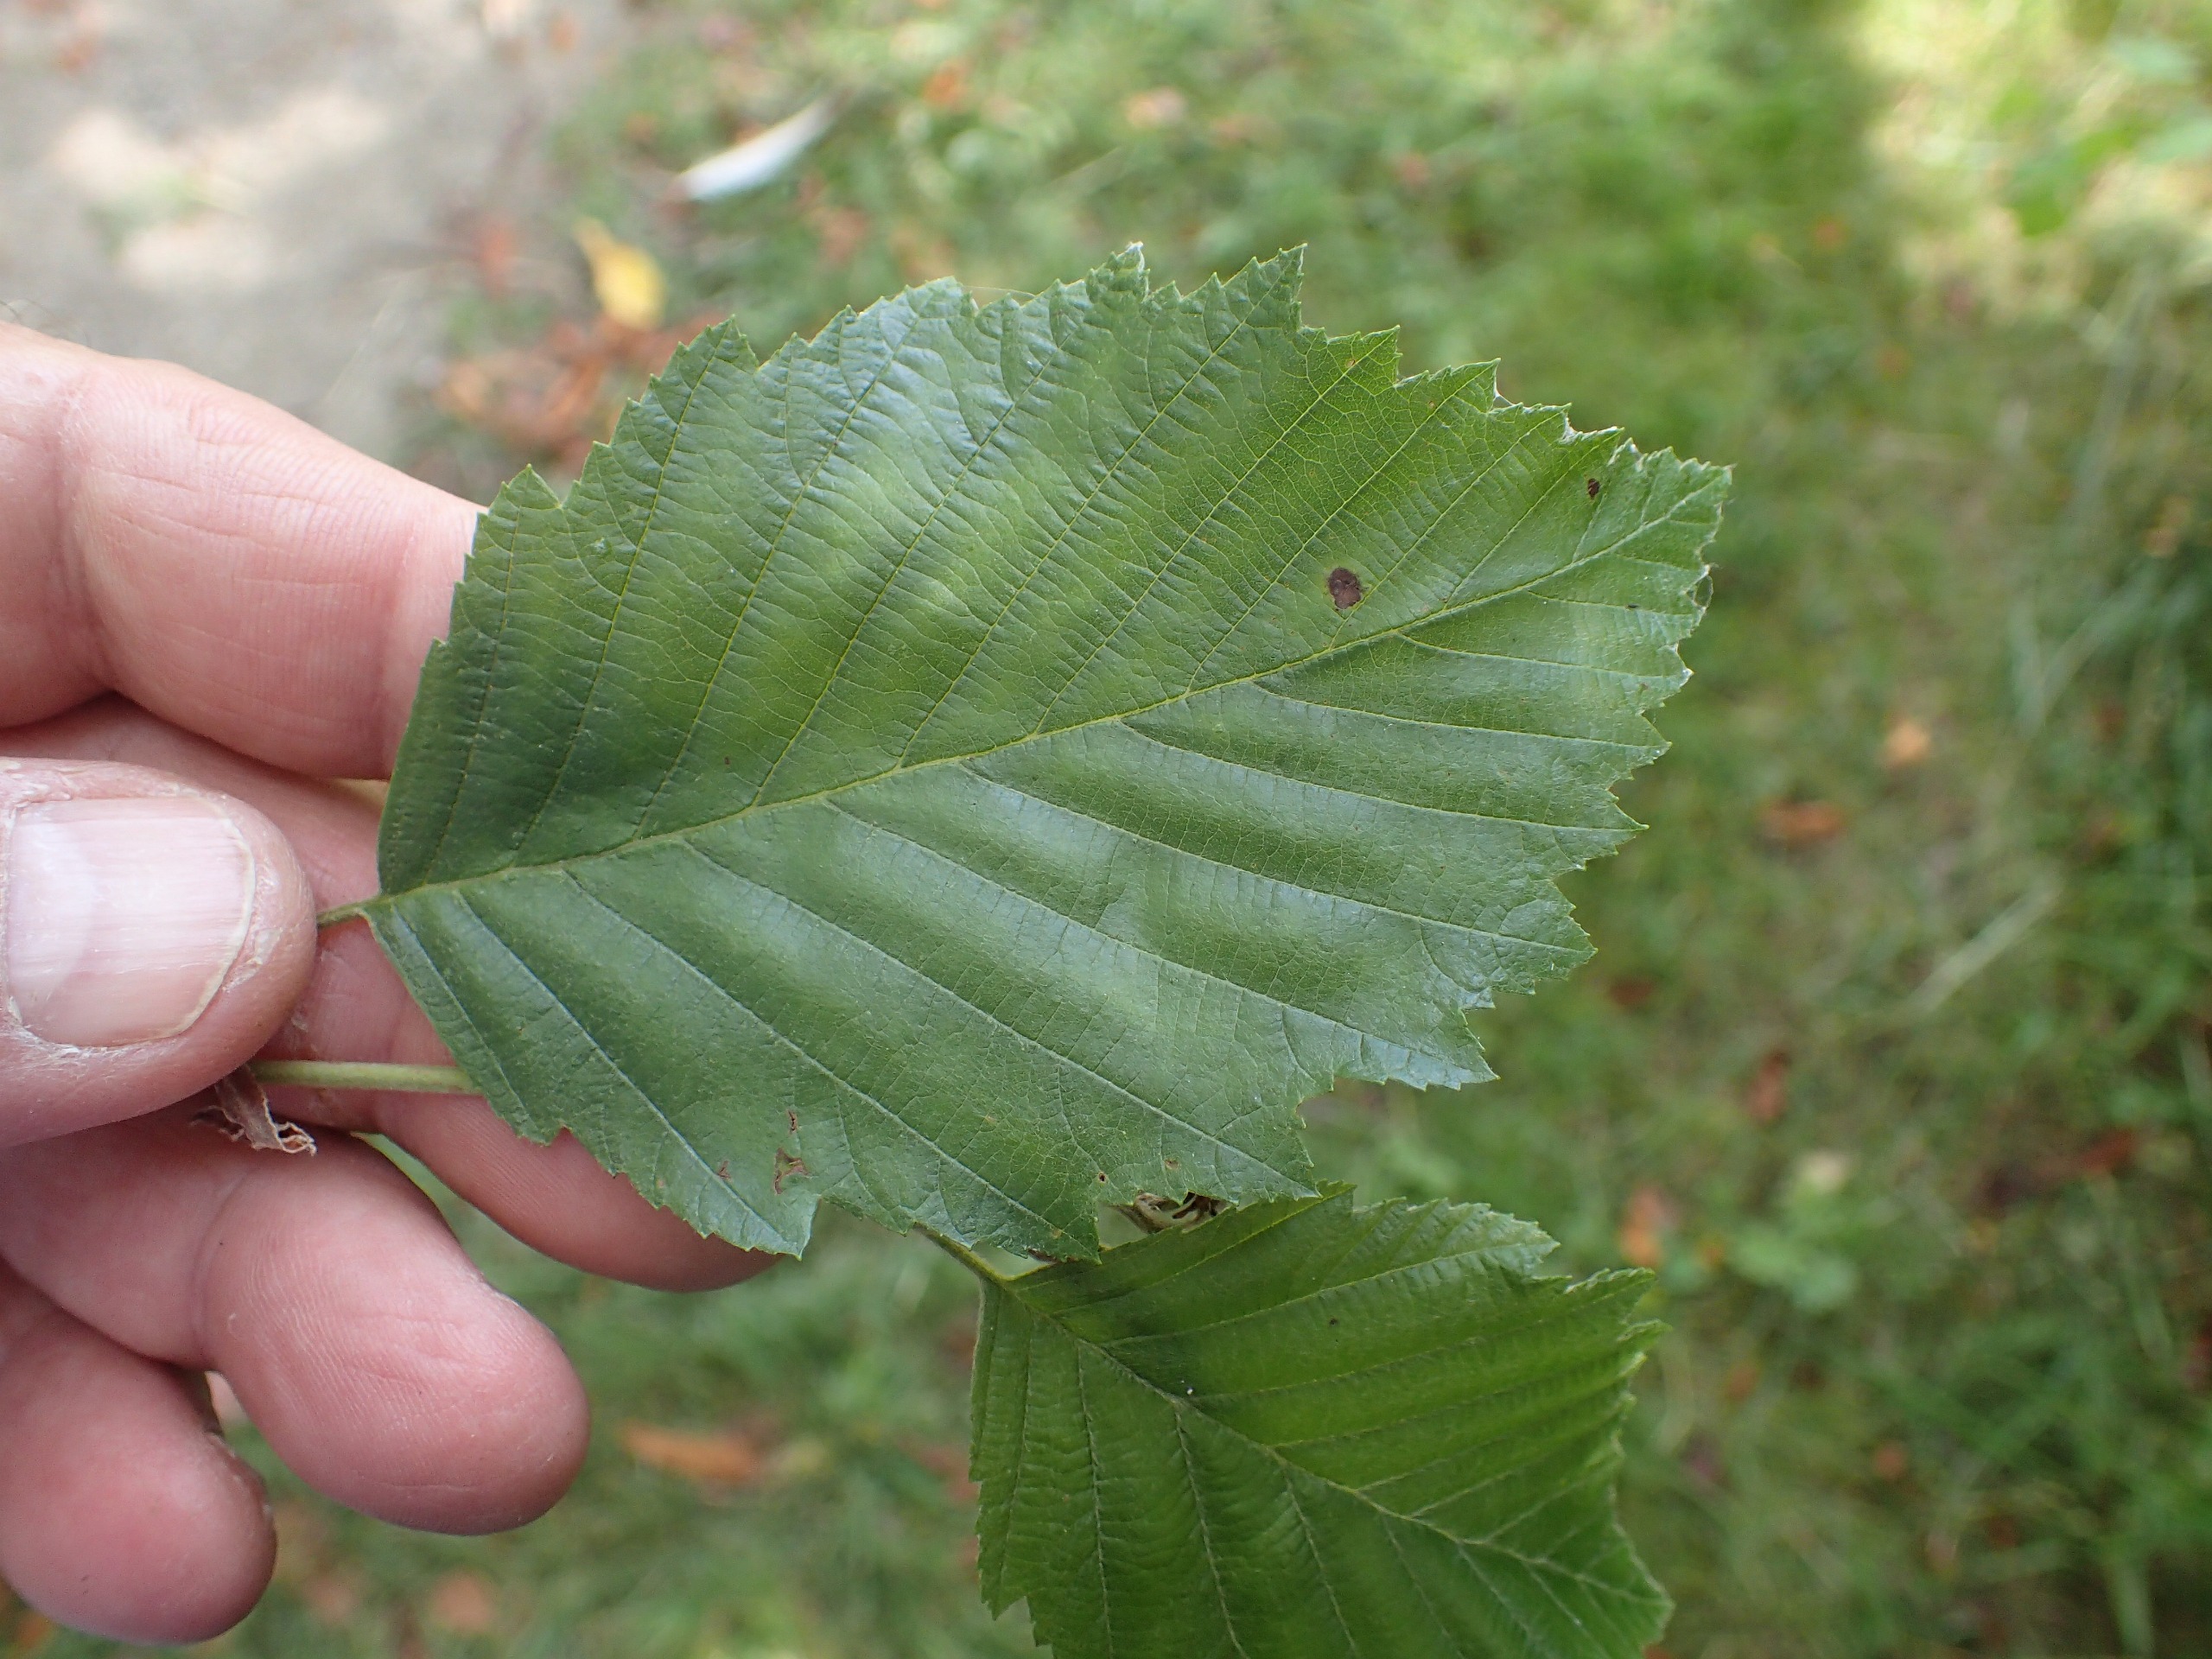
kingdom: Plantae
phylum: Tracheophyta
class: Magnoliopsida
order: Fagales
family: Betulaceae
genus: Alnus
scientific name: Alnus incana
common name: Grå-el/hvid-el
